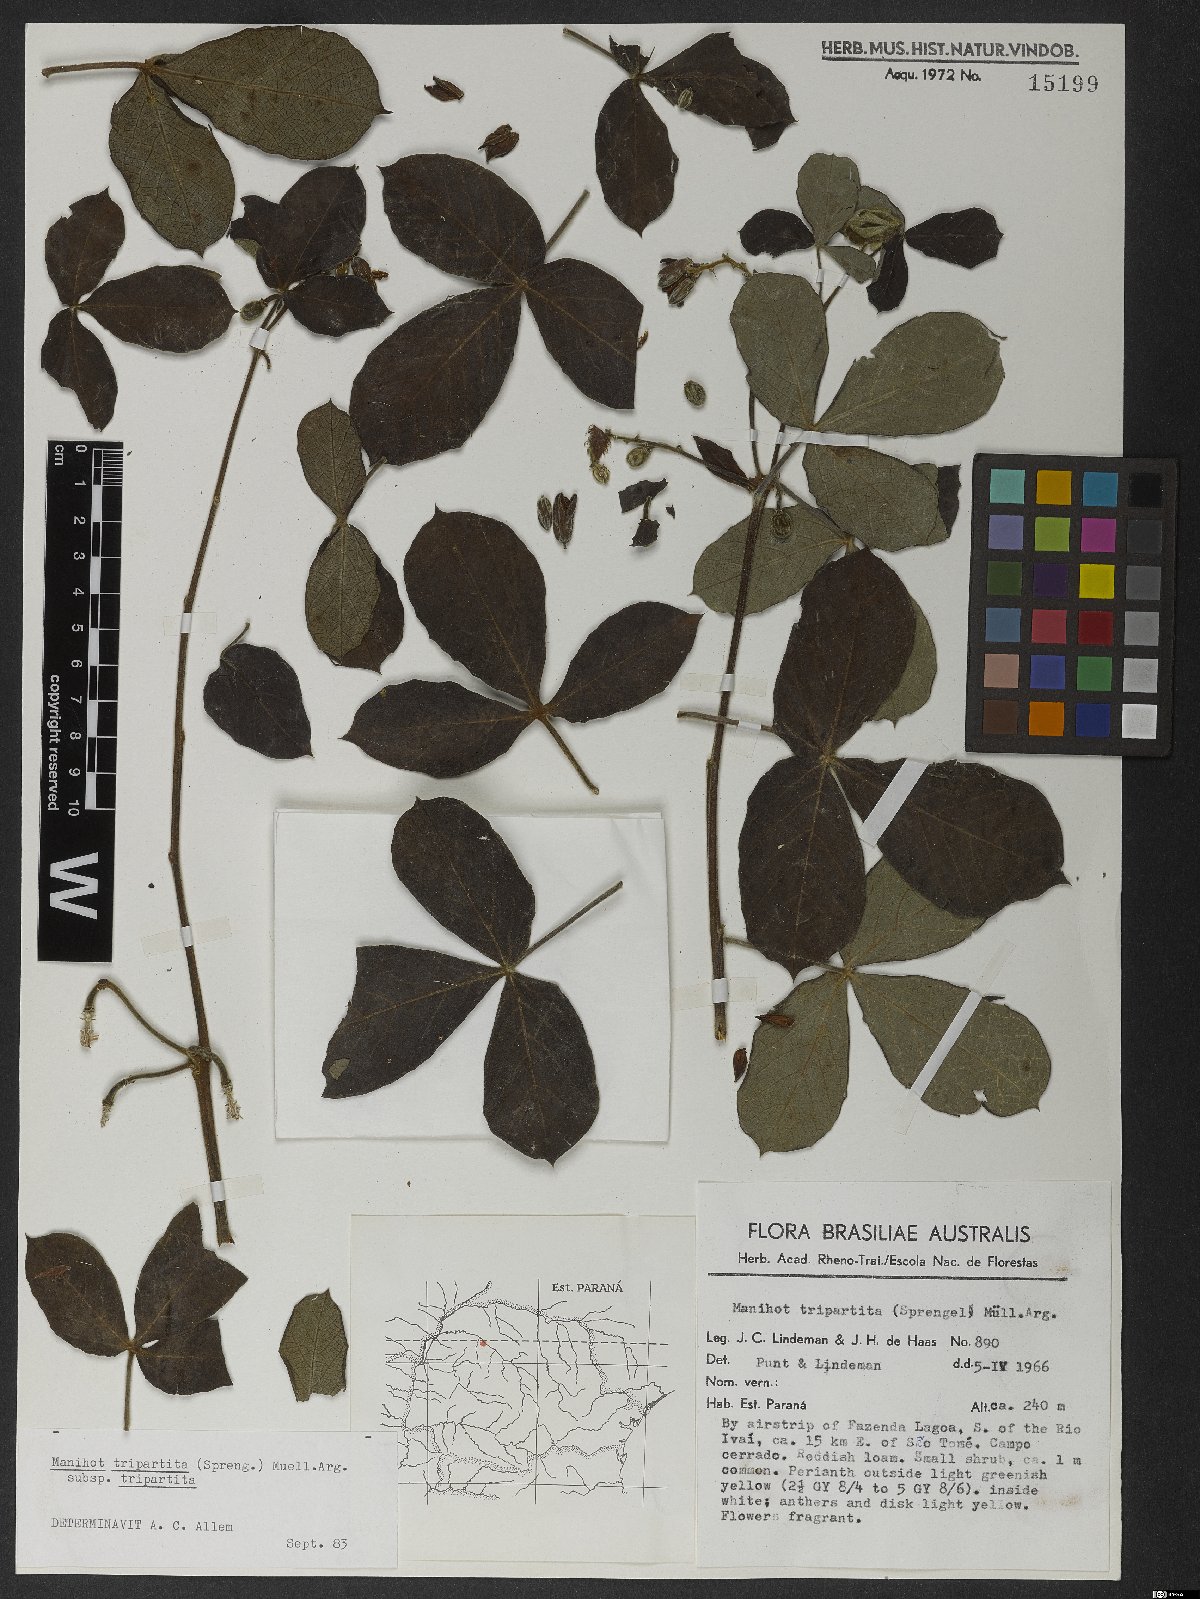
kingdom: Plantae
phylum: Tracheophyta
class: Magnoliopsida
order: Malpighiales
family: Euphorbiaceae
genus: Manihot
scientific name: Manihot tripartita
